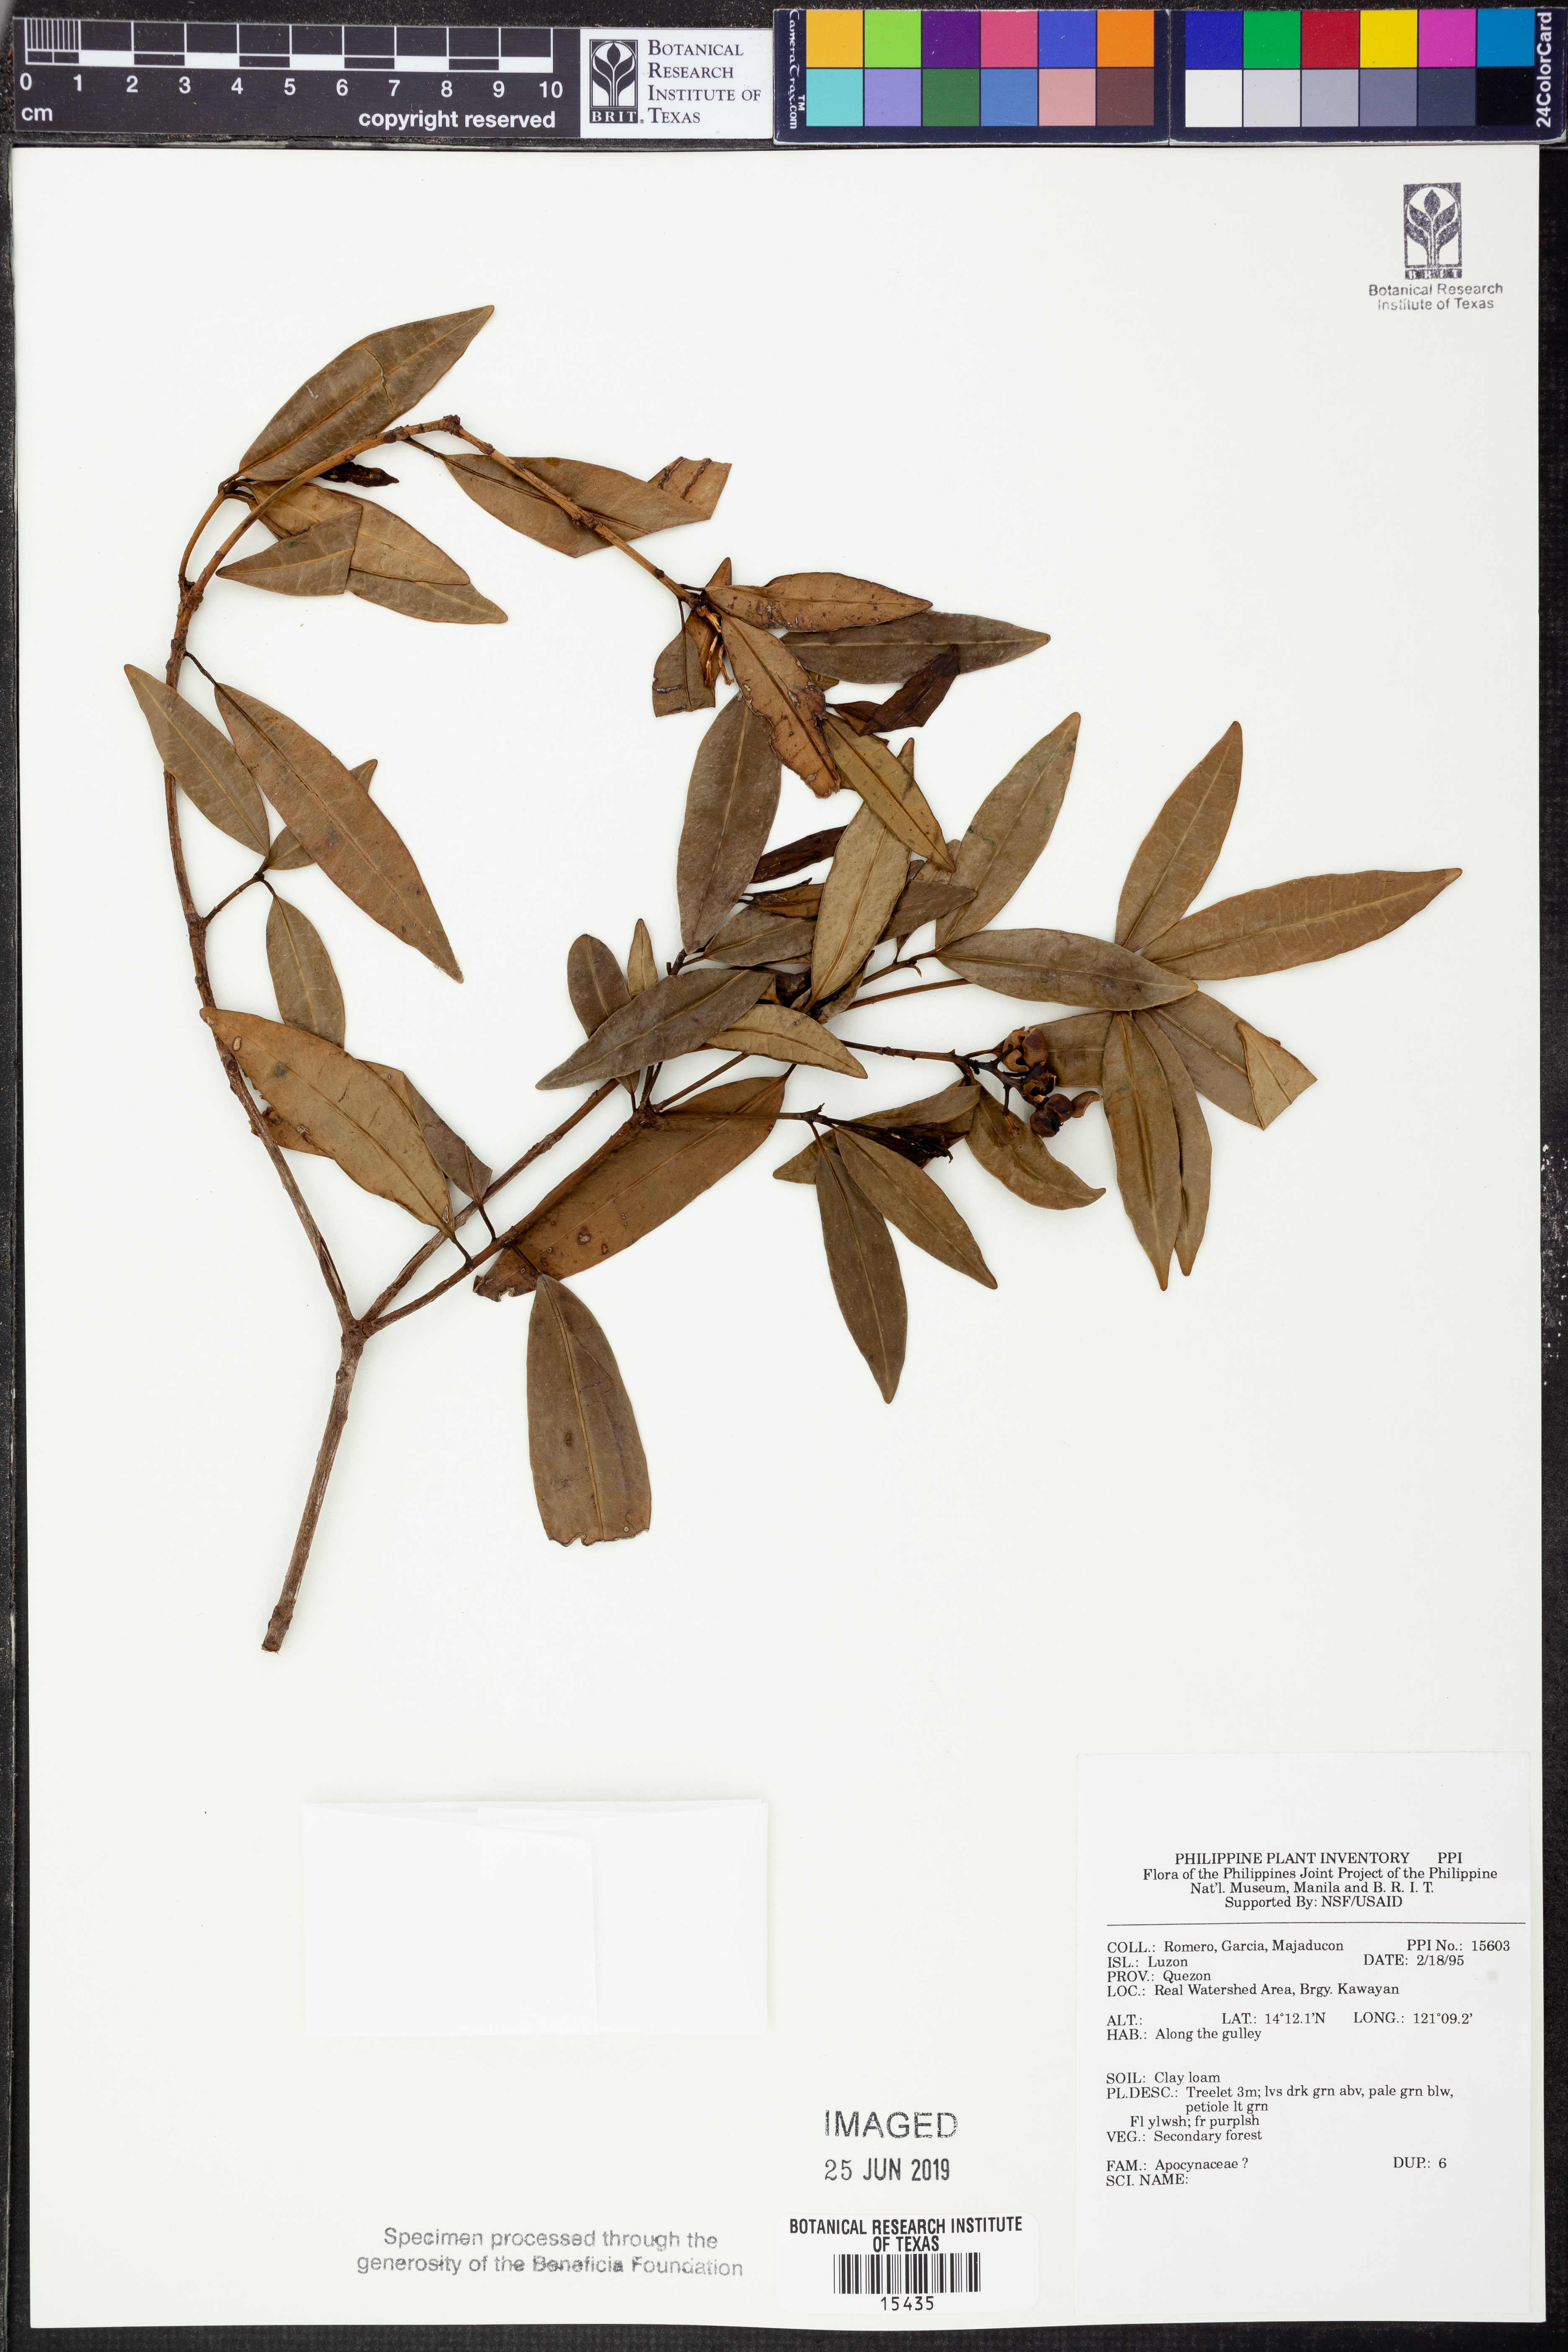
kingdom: Plantae
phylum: Tracheophyta
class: Magnoliopsida
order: Gentianales
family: Apocynaceae
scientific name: Apocynaceae
